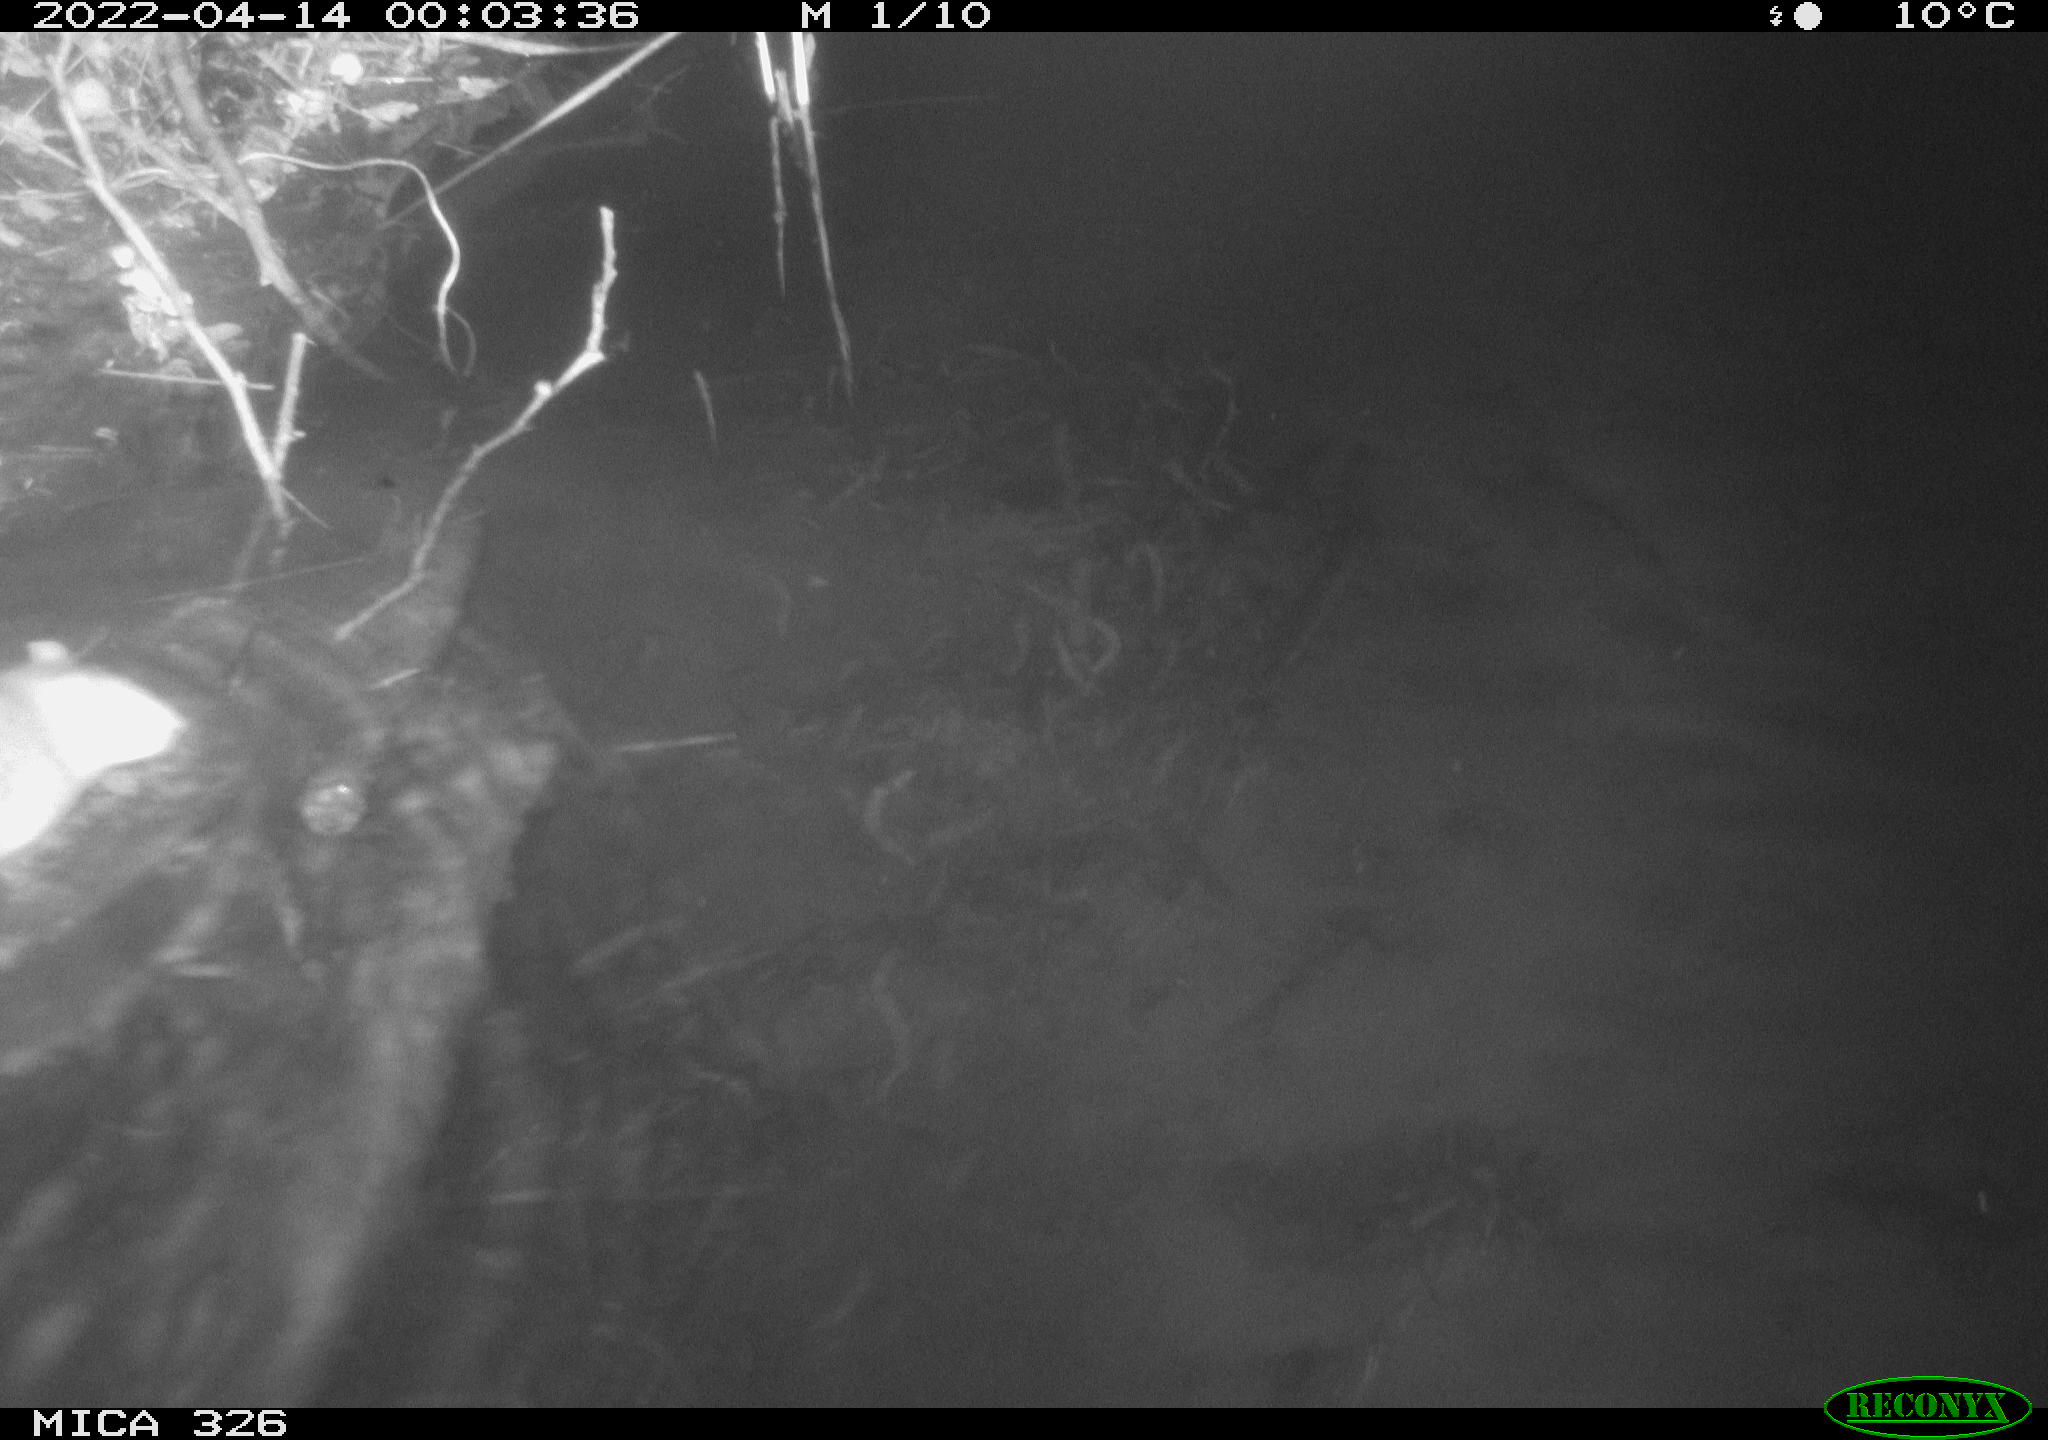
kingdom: Animalia
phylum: Chordata
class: Mammalia
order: Rodentia
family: Muridae
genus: Rattus
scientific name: Rattus norvegicus
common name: Brown rat
